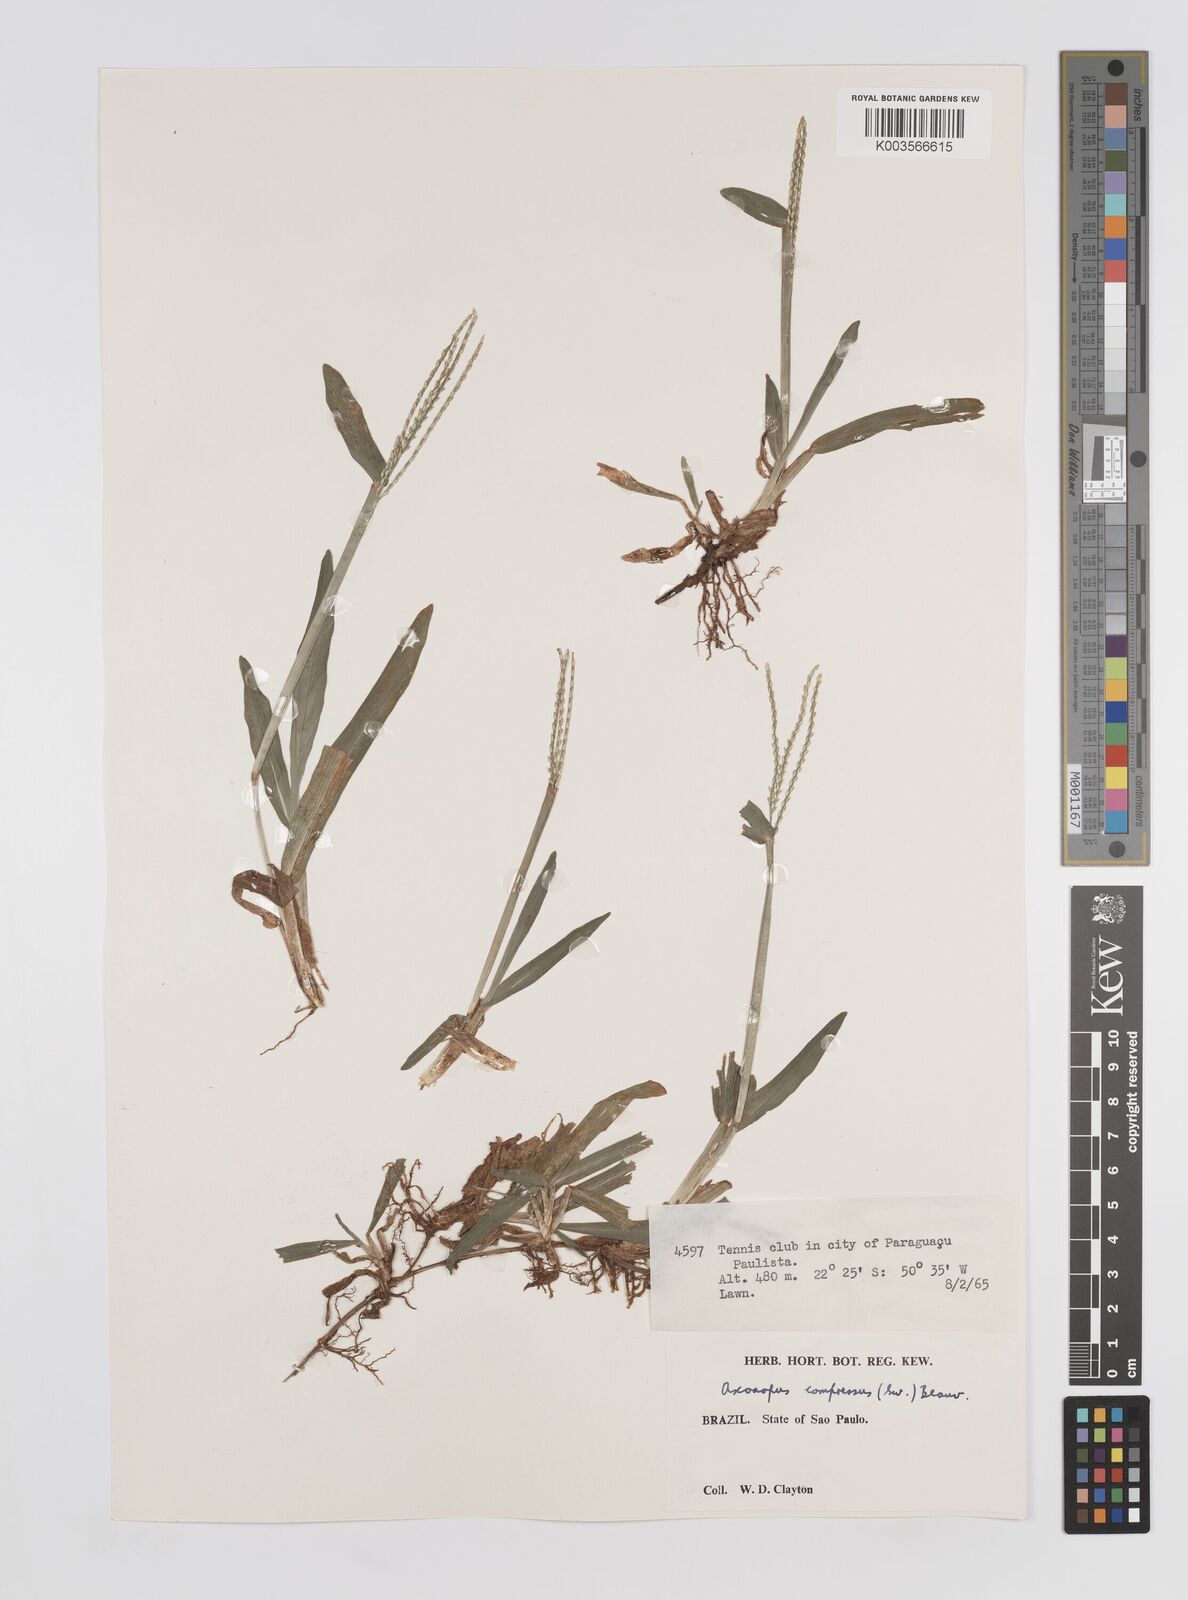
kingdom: Plantae
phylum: Tracheophyta
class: Liliopsida
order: Poales
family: Poaceae
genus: Axonopus
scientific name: Axonopus compressus
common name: American carpet grass
